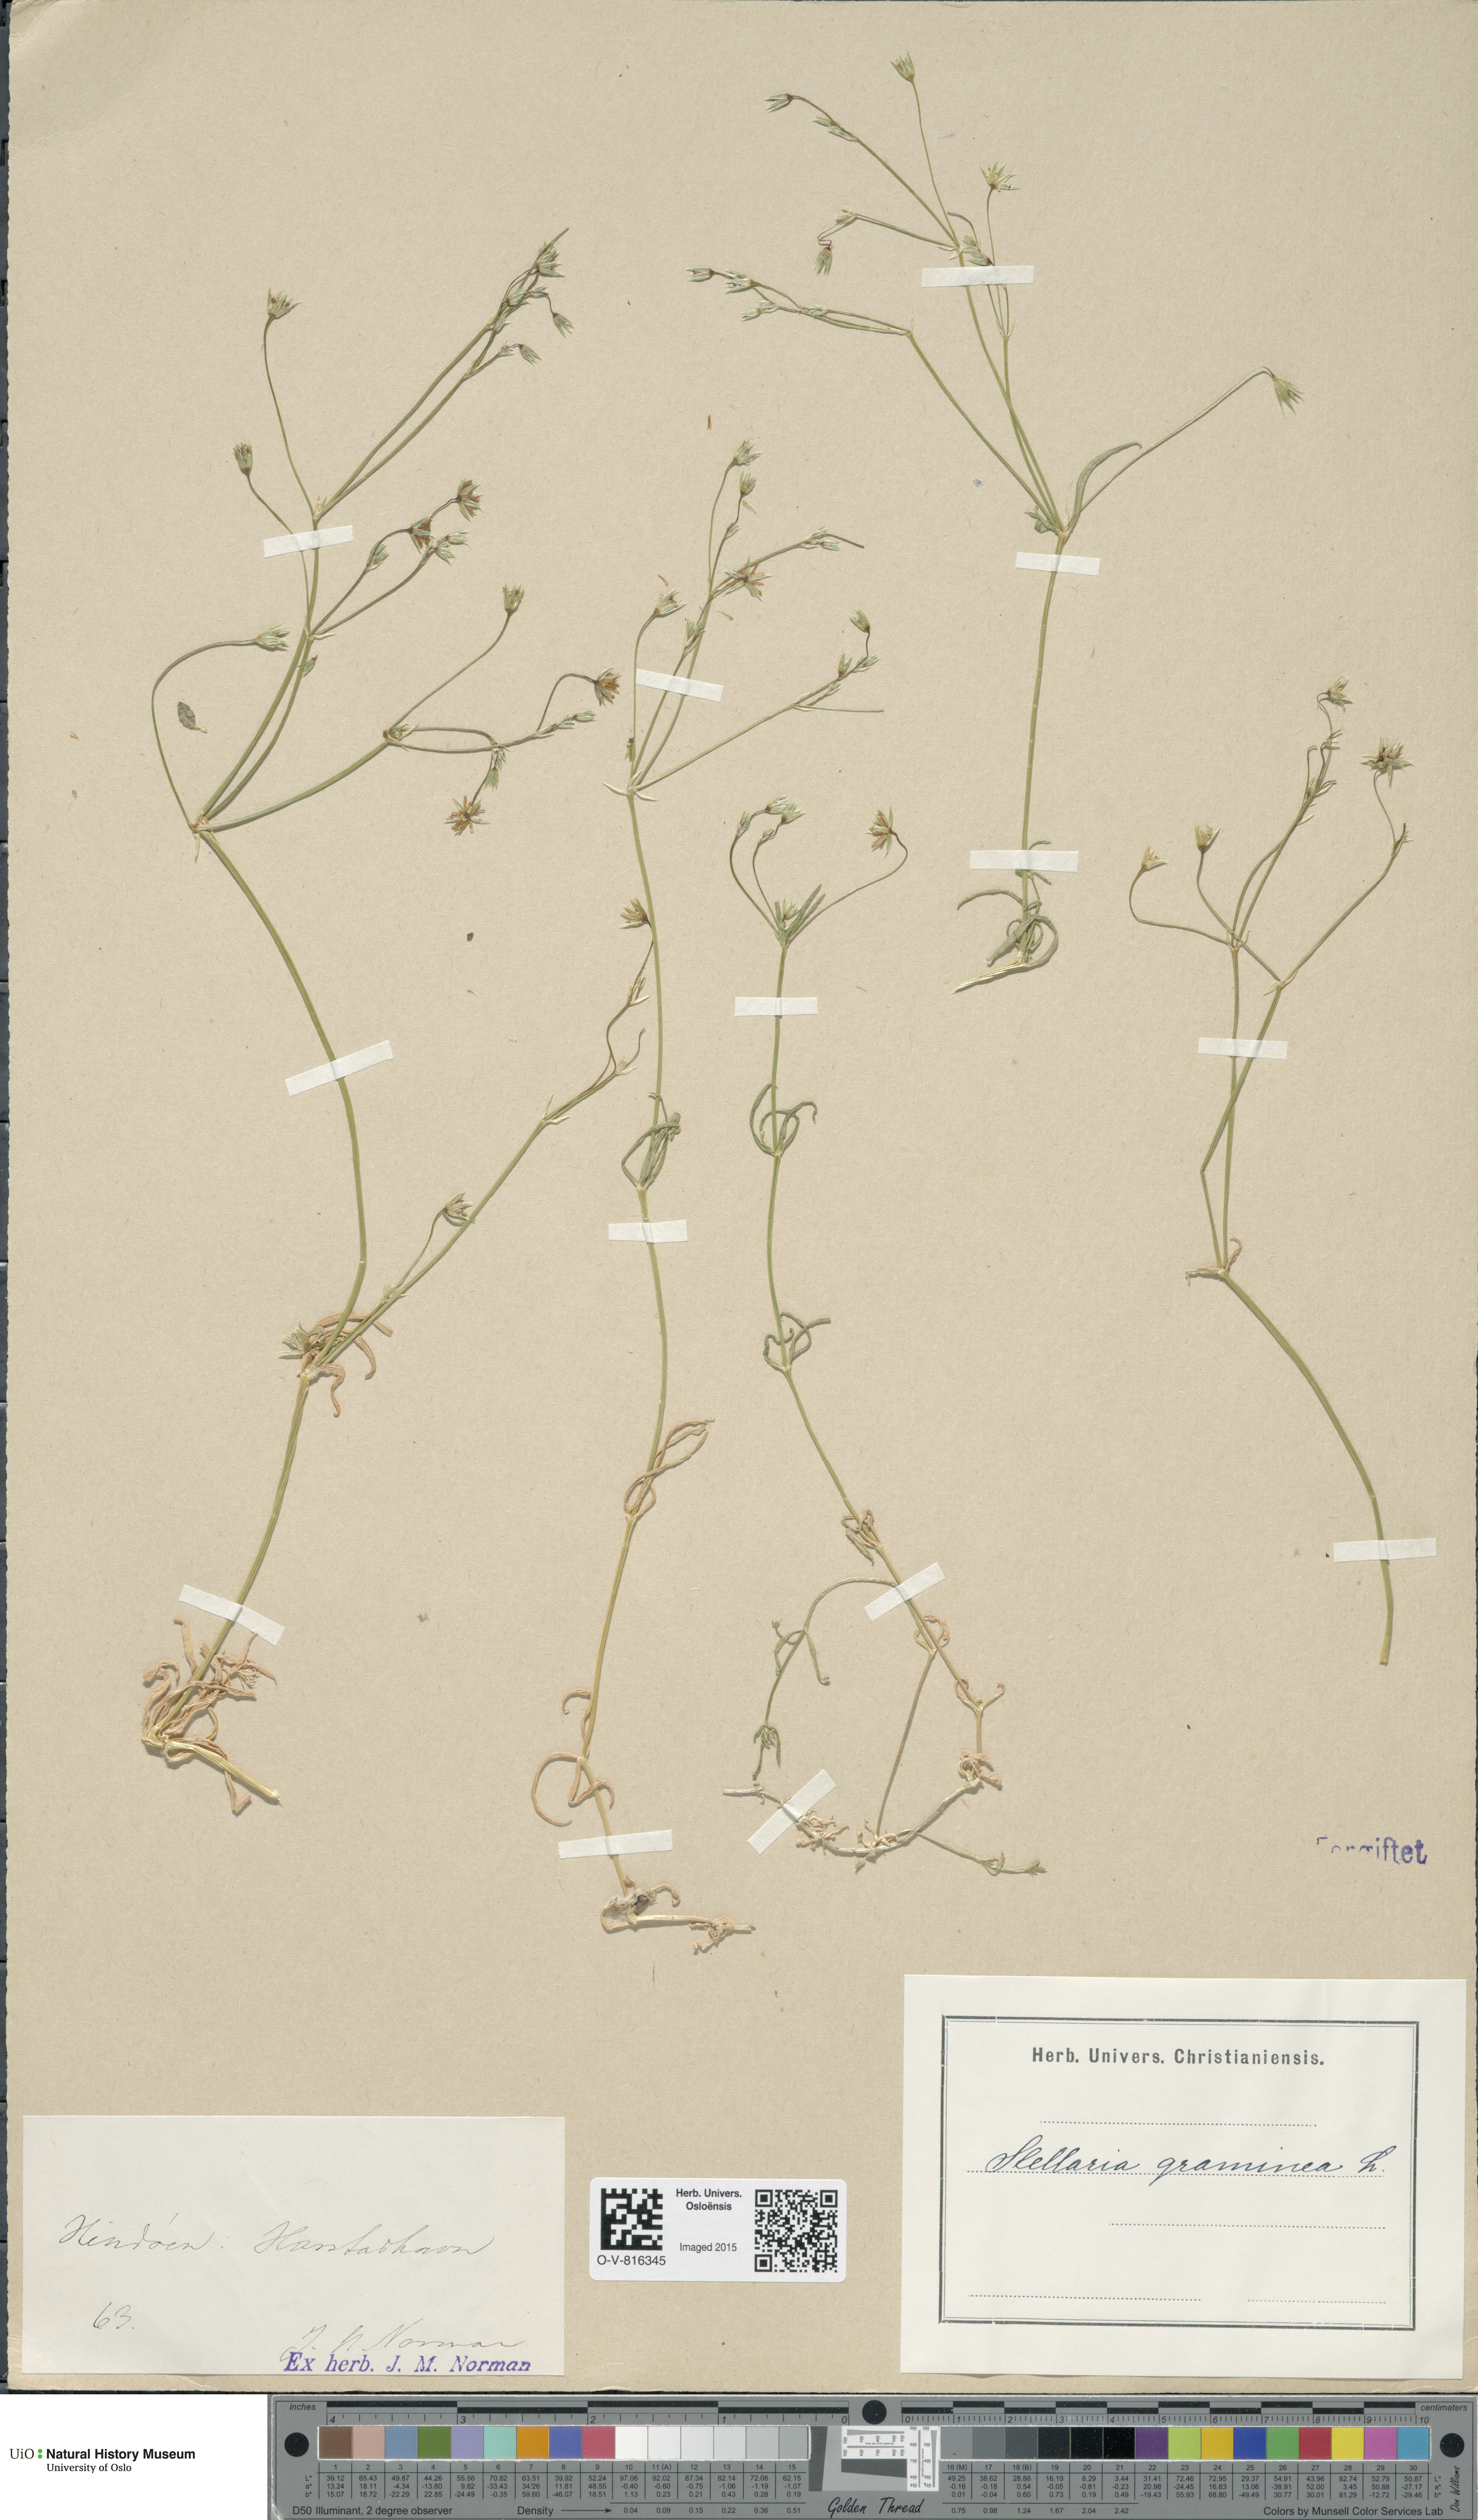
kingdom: Plantae
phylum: Tracheophyta
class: Magnoliopsida
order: Caryophyllales
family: Caryophyllaceae
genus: Stellaria
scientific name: Stellaria graminea
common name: Grass-like starwort
